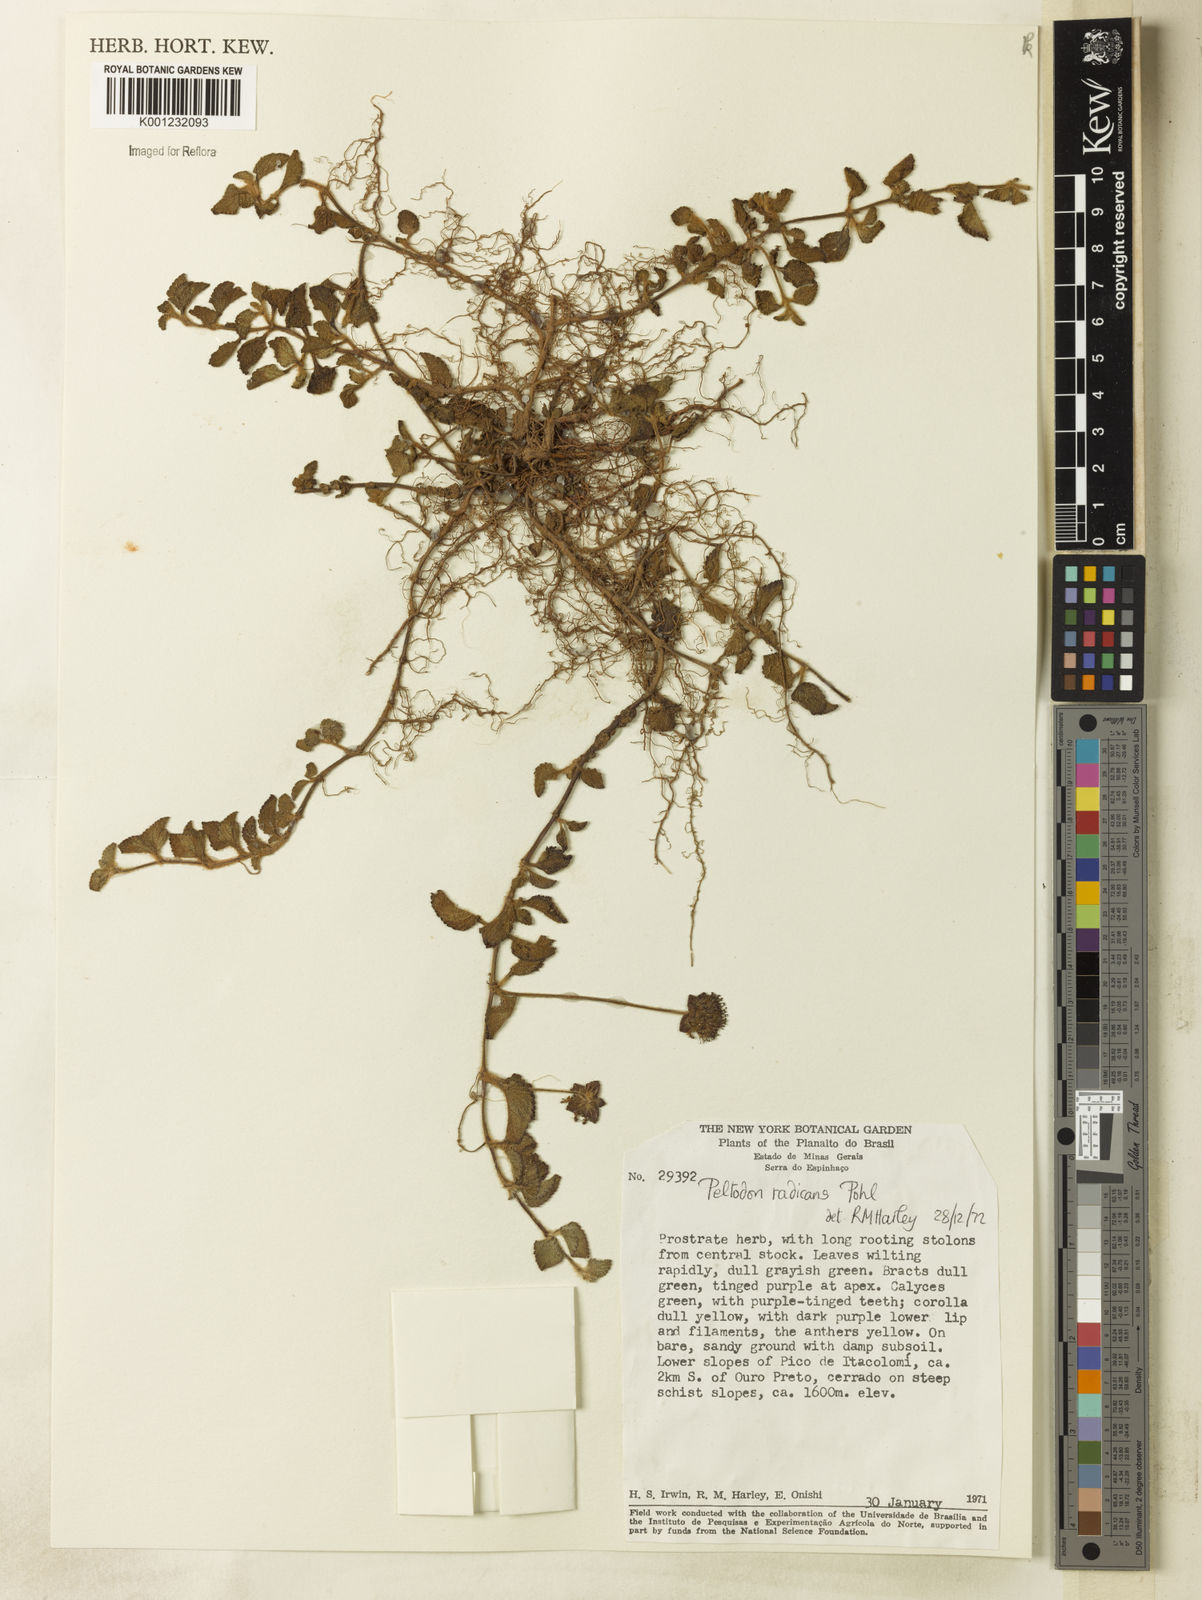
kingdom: Plantae
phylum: Tracheophyta
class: Magnoliopsida
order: Lamiales
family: Lamiaceae
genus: Hyptis
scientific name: Hyptis radicans
